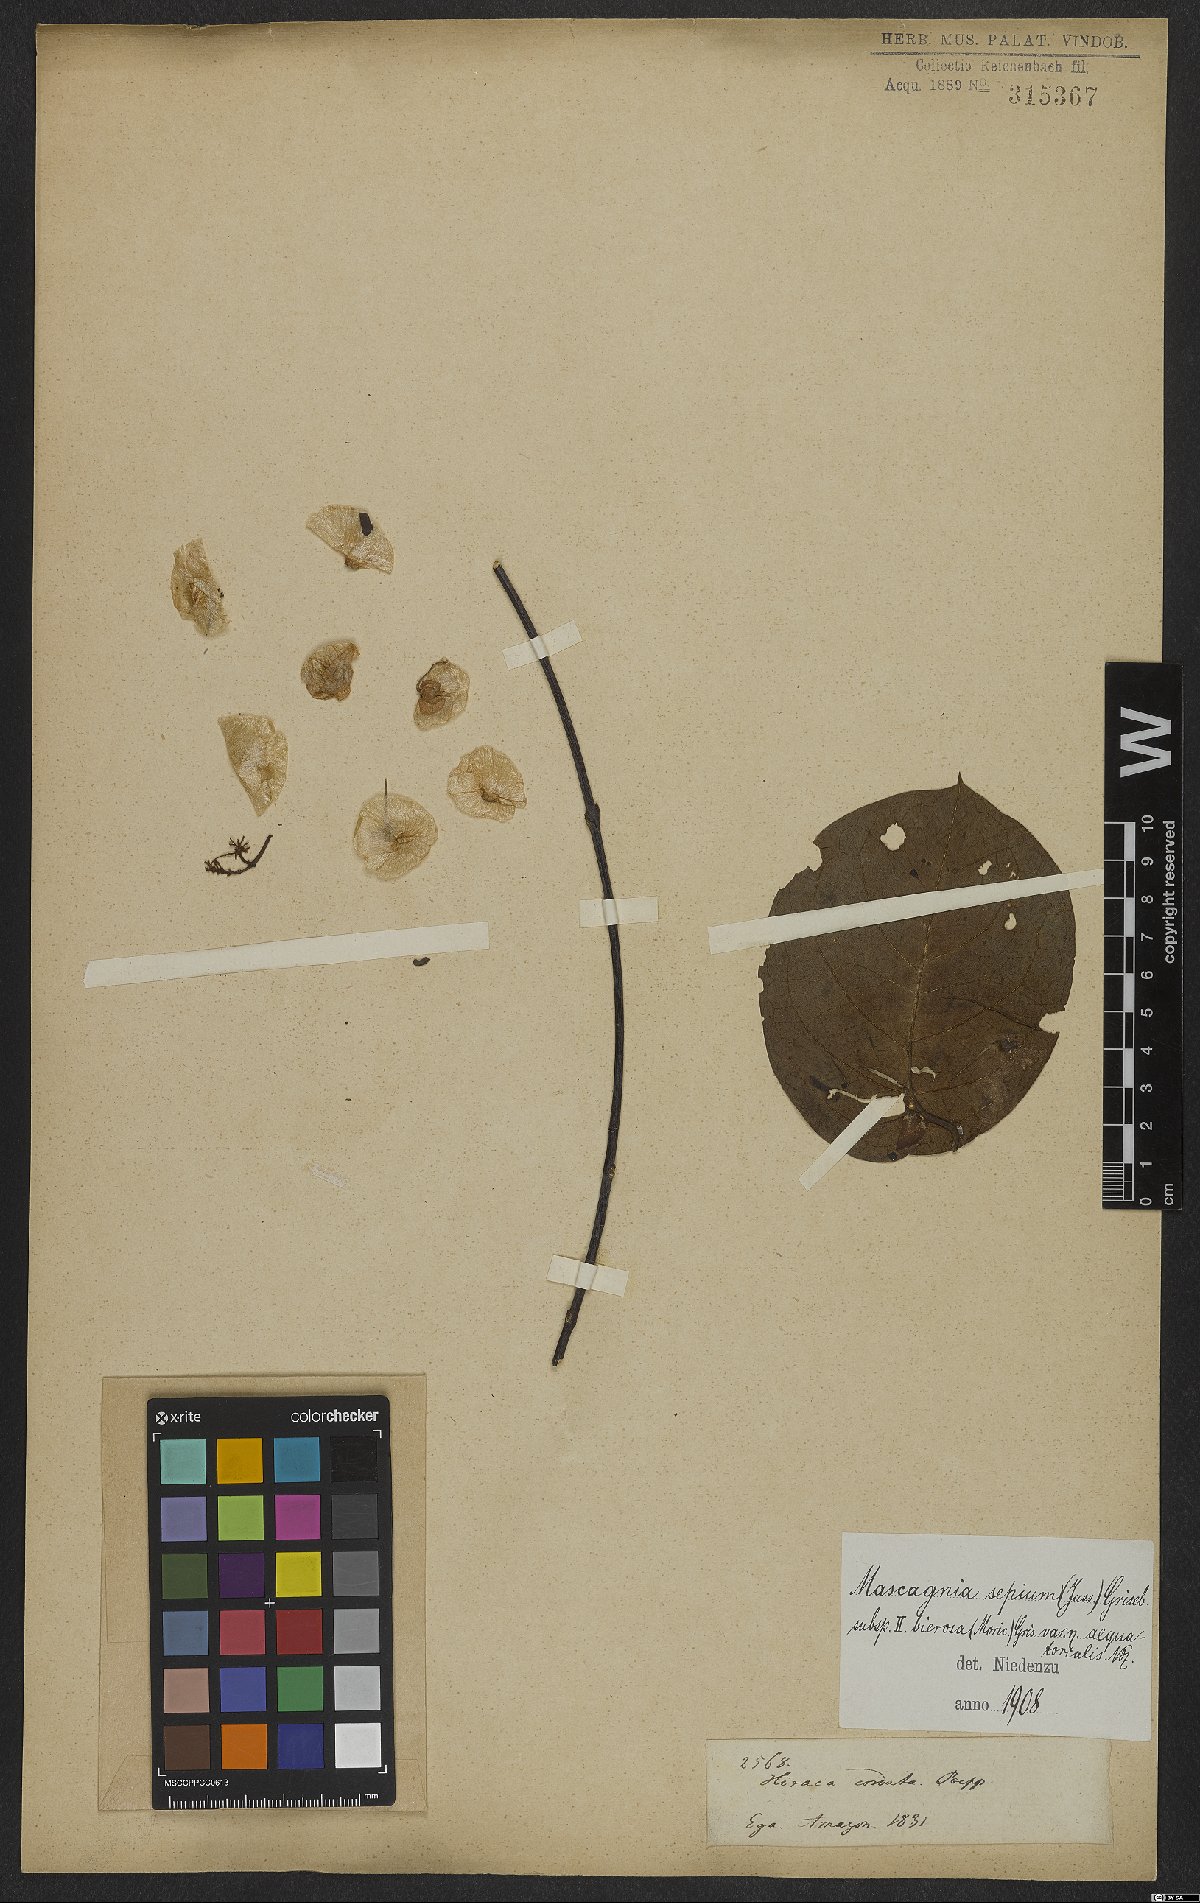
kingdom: Plantae
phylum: Tracheophyta
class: Magnoliopsida
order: Malpighiales
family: Malpighiaceae
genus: Mascagnia
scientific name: Mascagnia sepium
